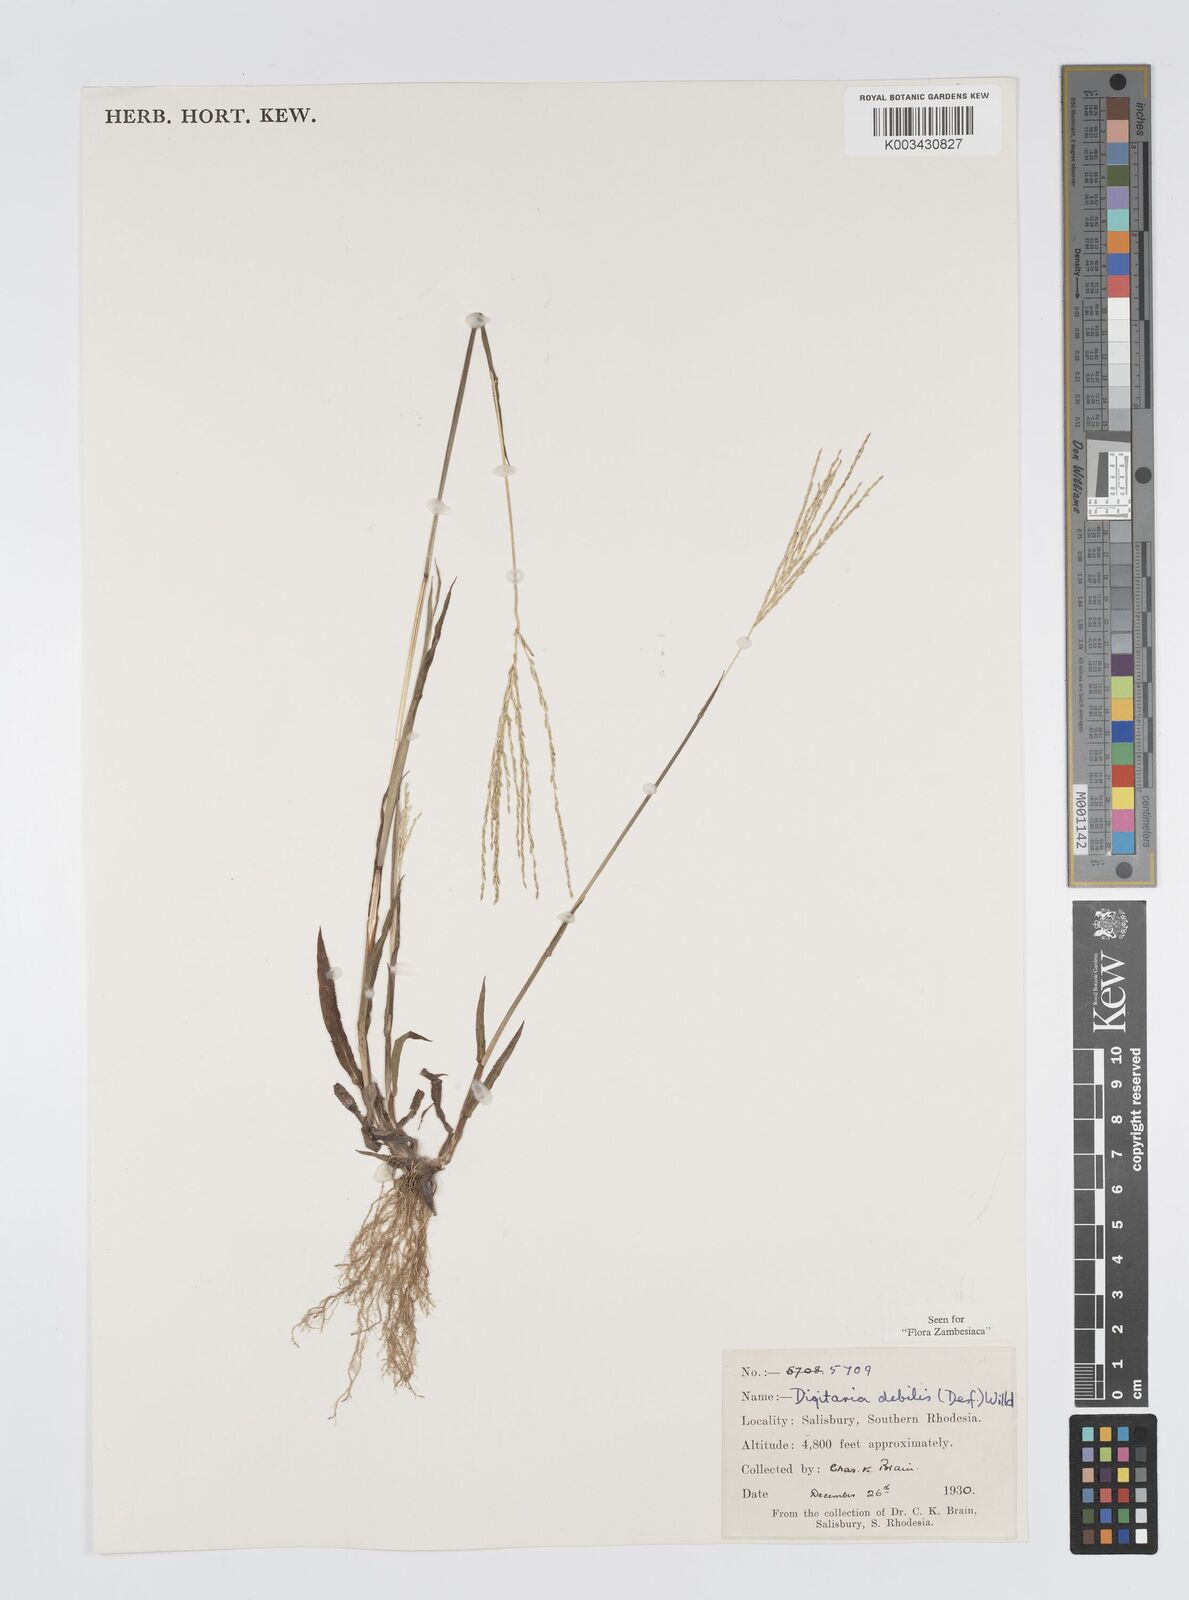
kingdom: Plantae
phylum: Tracheophyta
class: Liliopsida
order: Poales
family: Poaceae
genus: Digitaria
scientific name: Digitaria debilis
